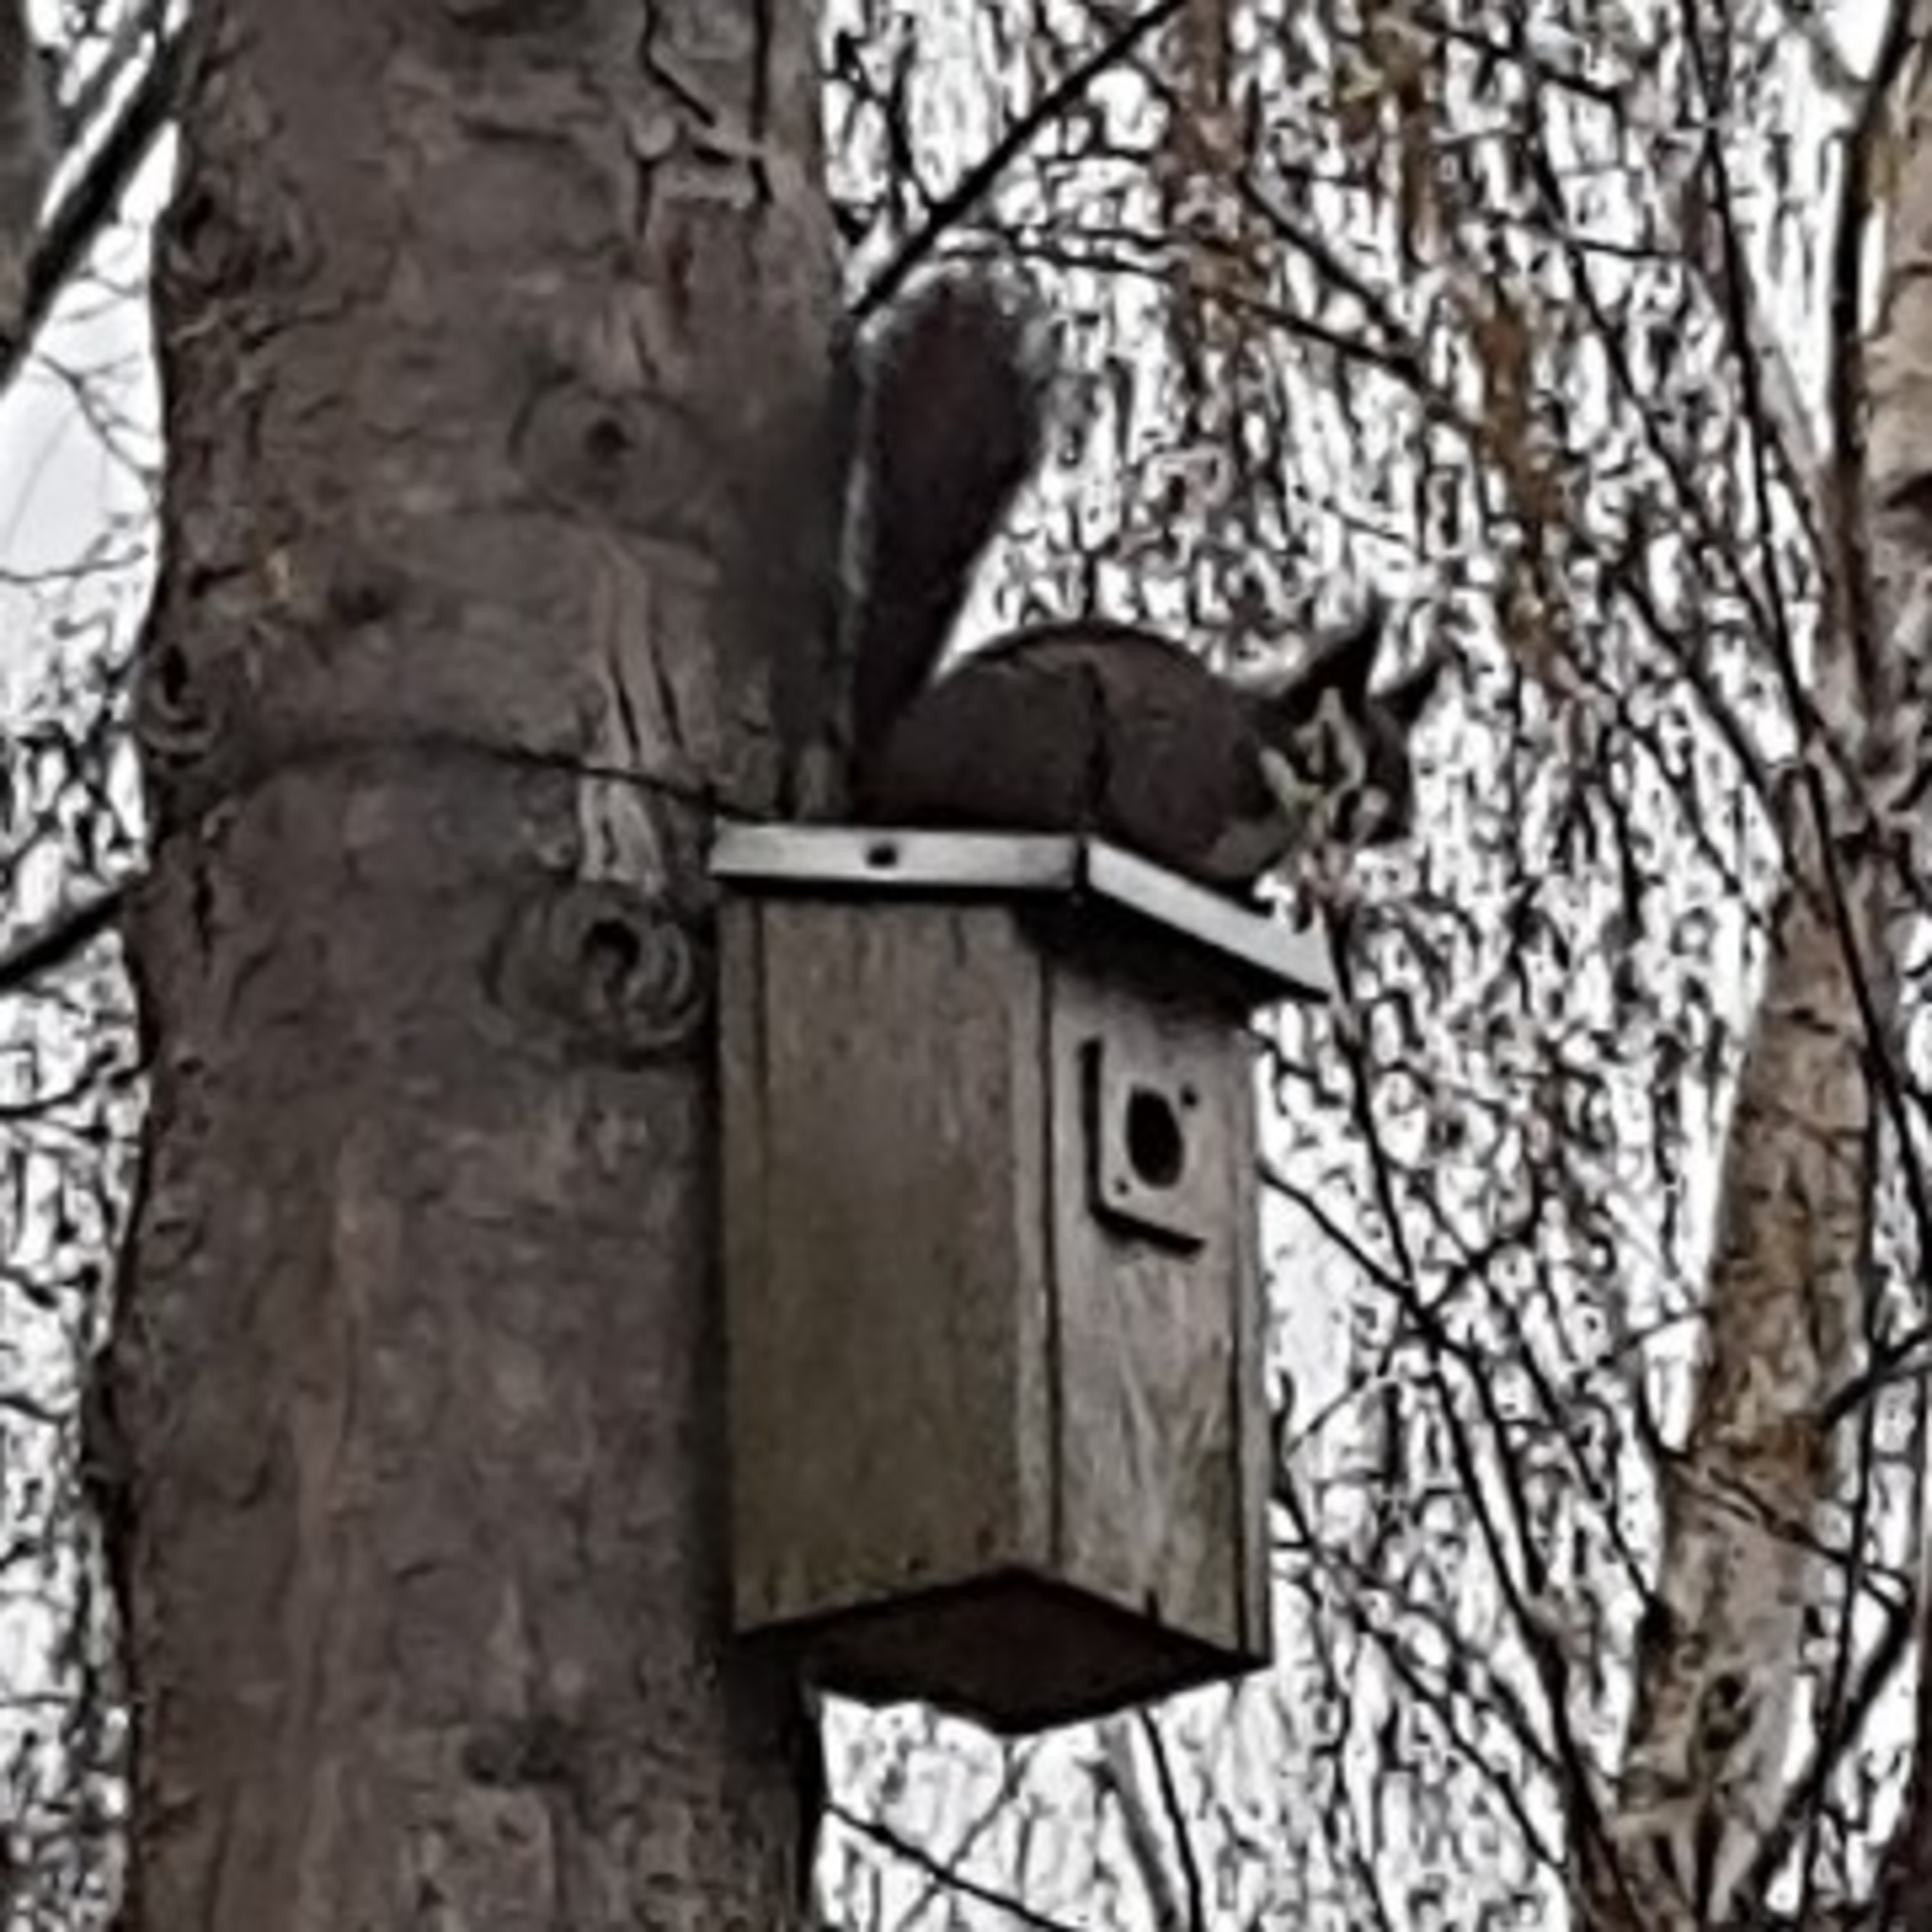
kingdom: Animalia
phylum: Chordata
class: Mammalia
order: Rodentia
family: Sciuridae
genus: Sciurus
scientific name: Sciurus vulgaris
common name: Egern
